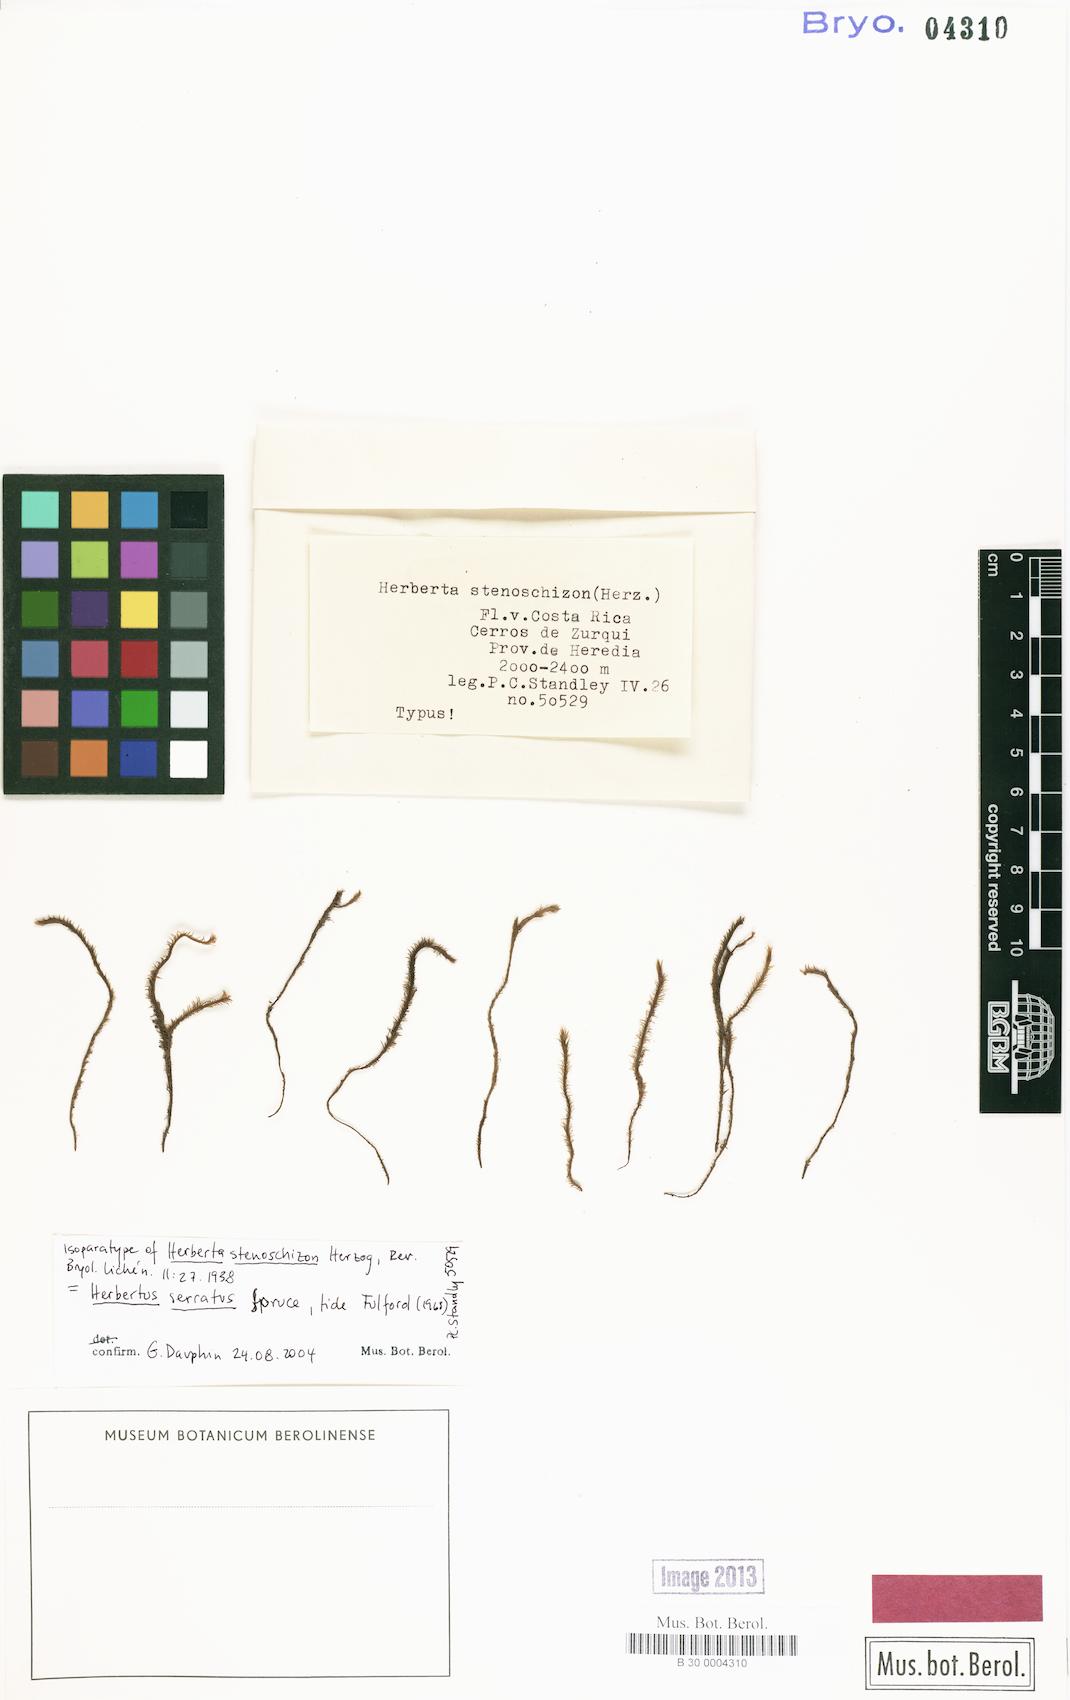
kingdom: Plantae
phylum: Marchantiophyta
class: Jungermanniopsida
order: Jungermanniales
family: Herbertaceae
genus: Herbertus
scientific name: Herbertus juniperoideus
